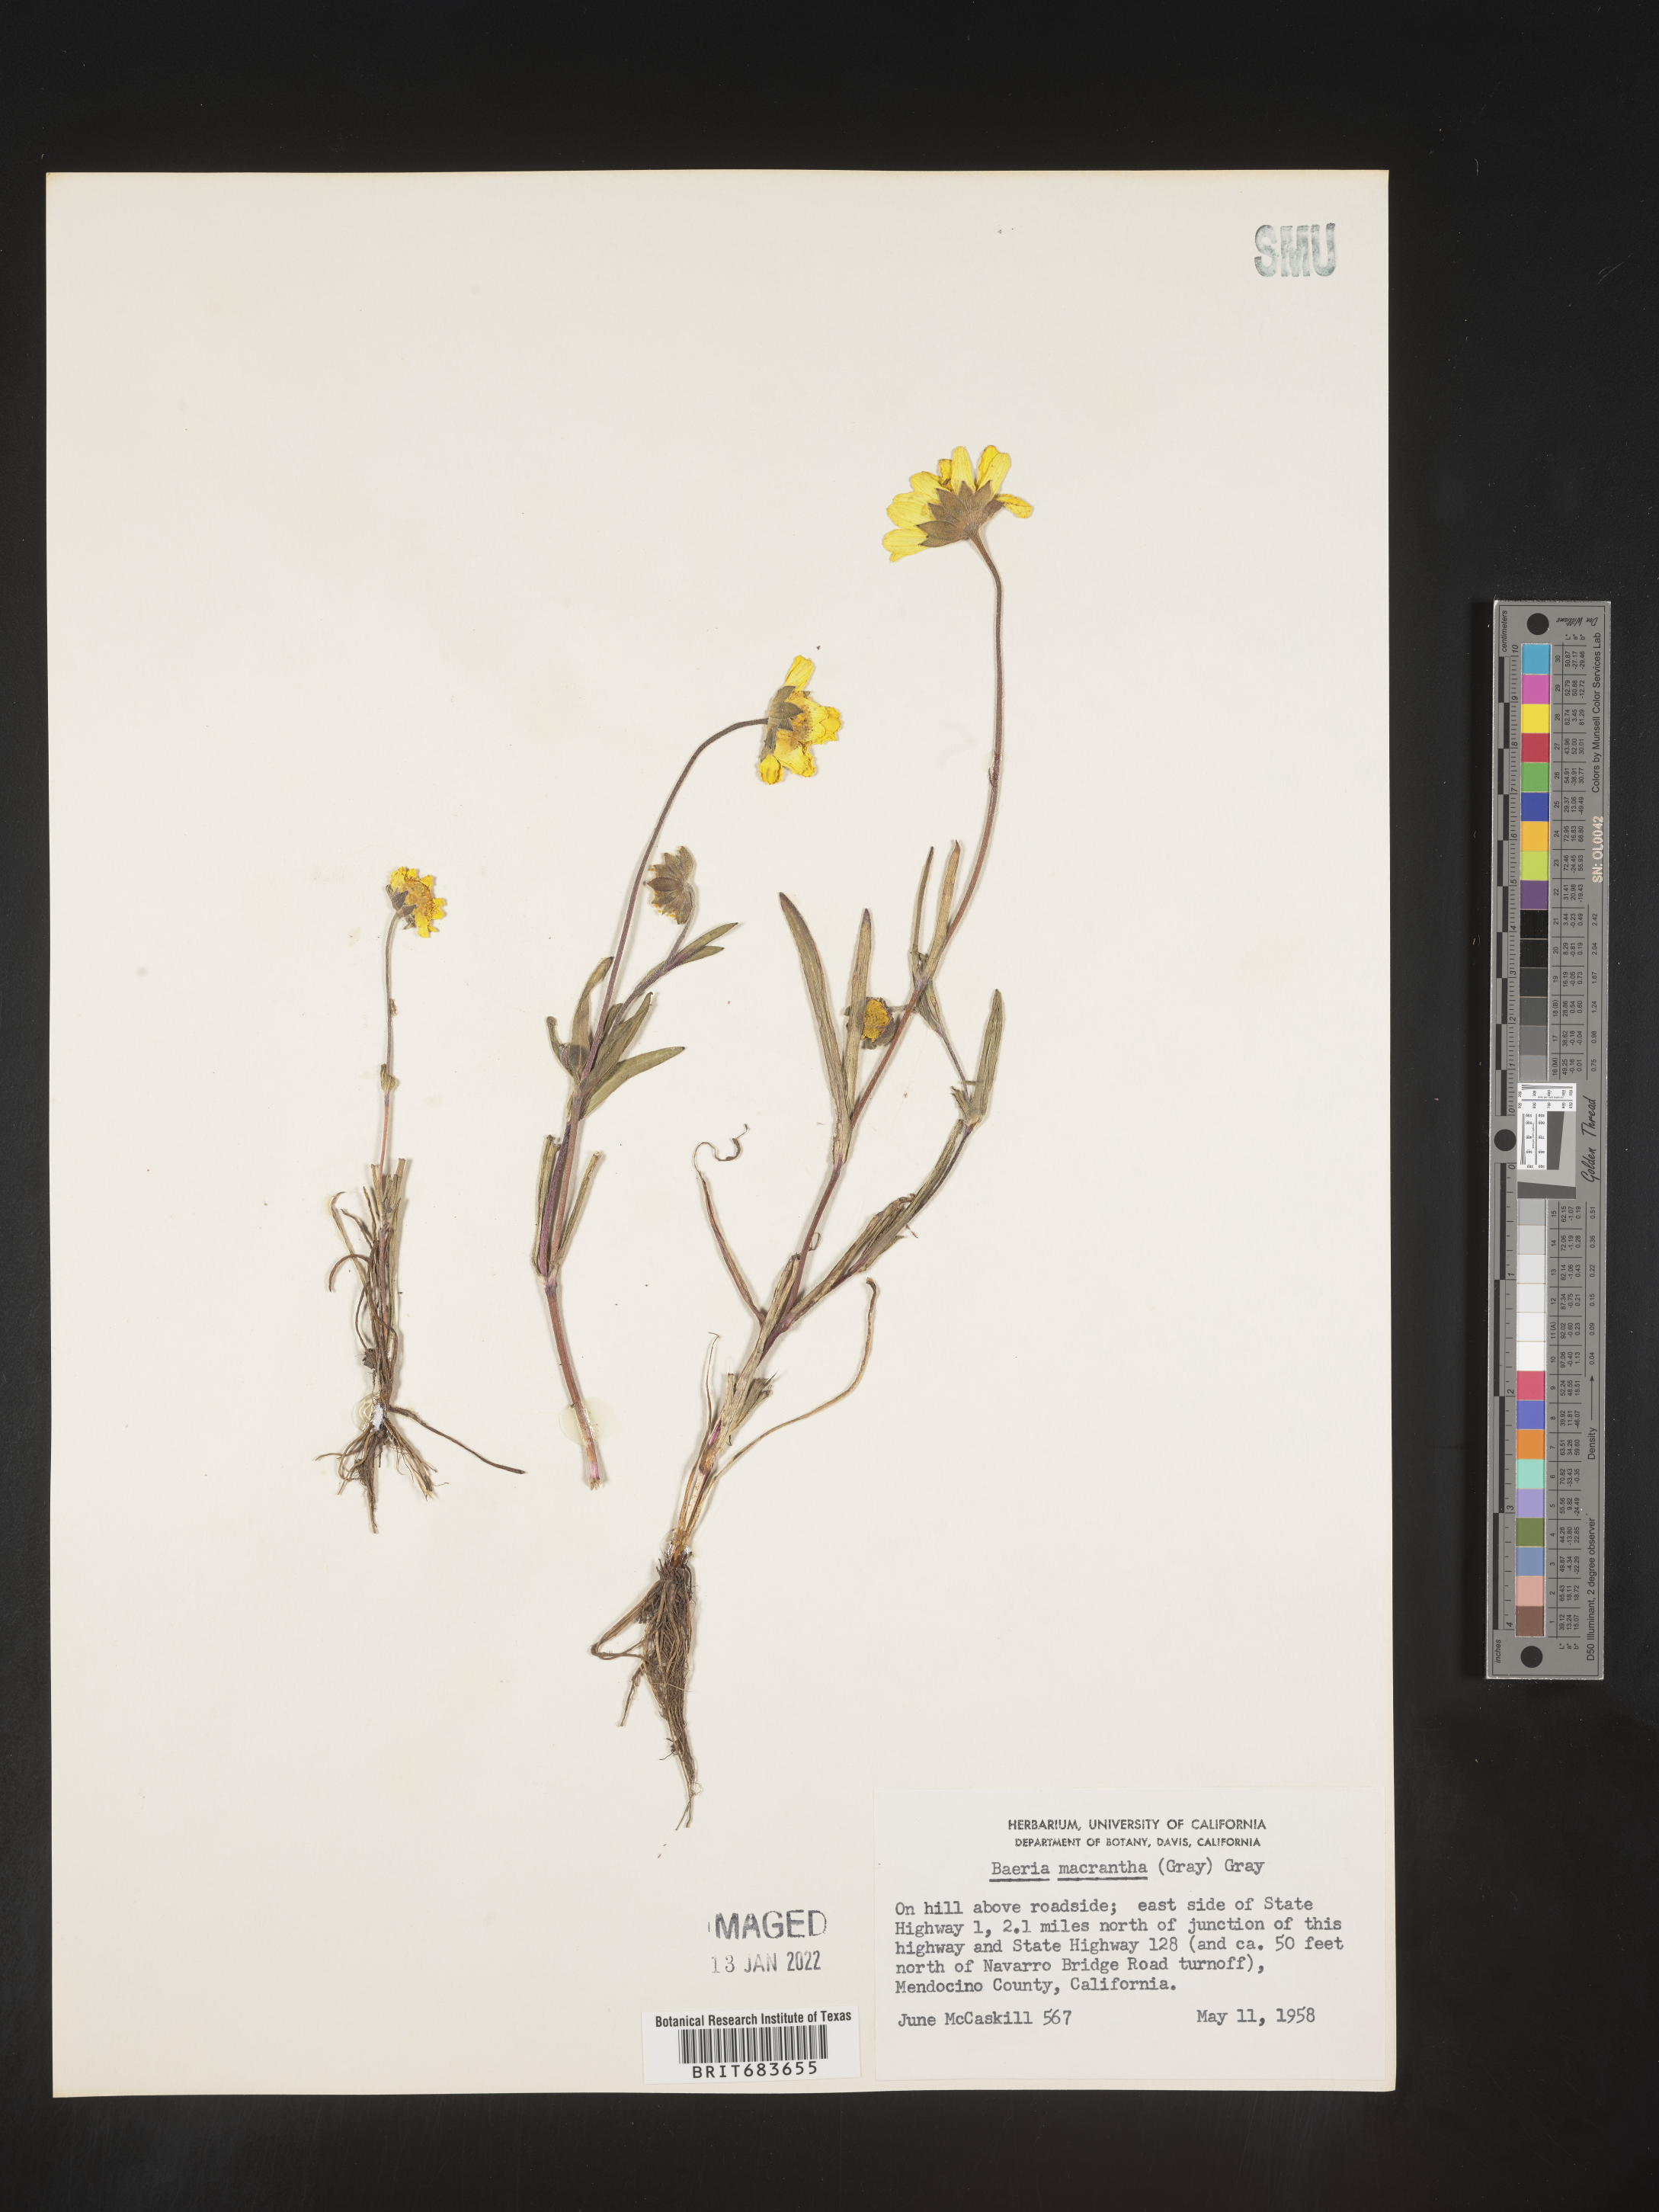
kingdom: Plantae
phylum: Tracheophyta
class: Magnoliopsida
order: Asterales
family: Asteraceae
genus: Lasthenia
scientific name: Lasthenia
